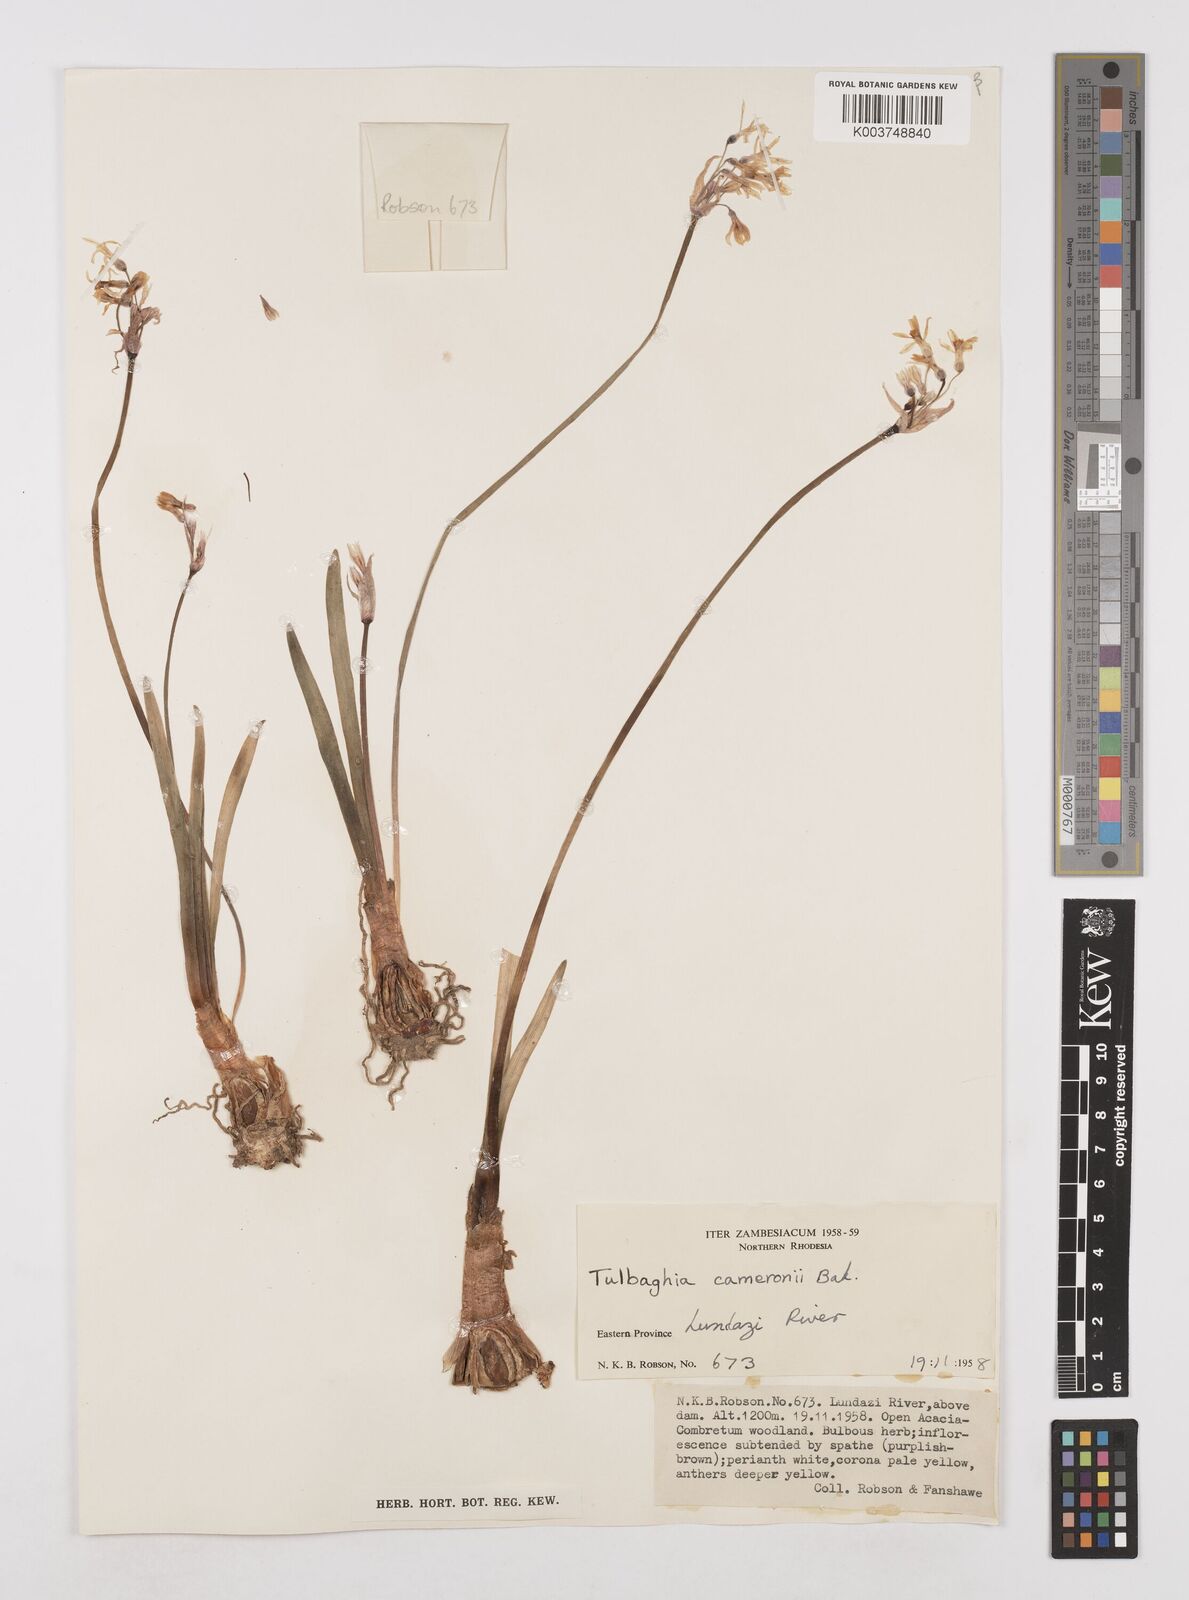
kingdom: Plantae
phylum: Tracheophyta
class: Liliopsida
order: Asparagales
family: Amaryllidaceae
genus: Tulbaghia
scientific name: Tulbaghia cameronii
